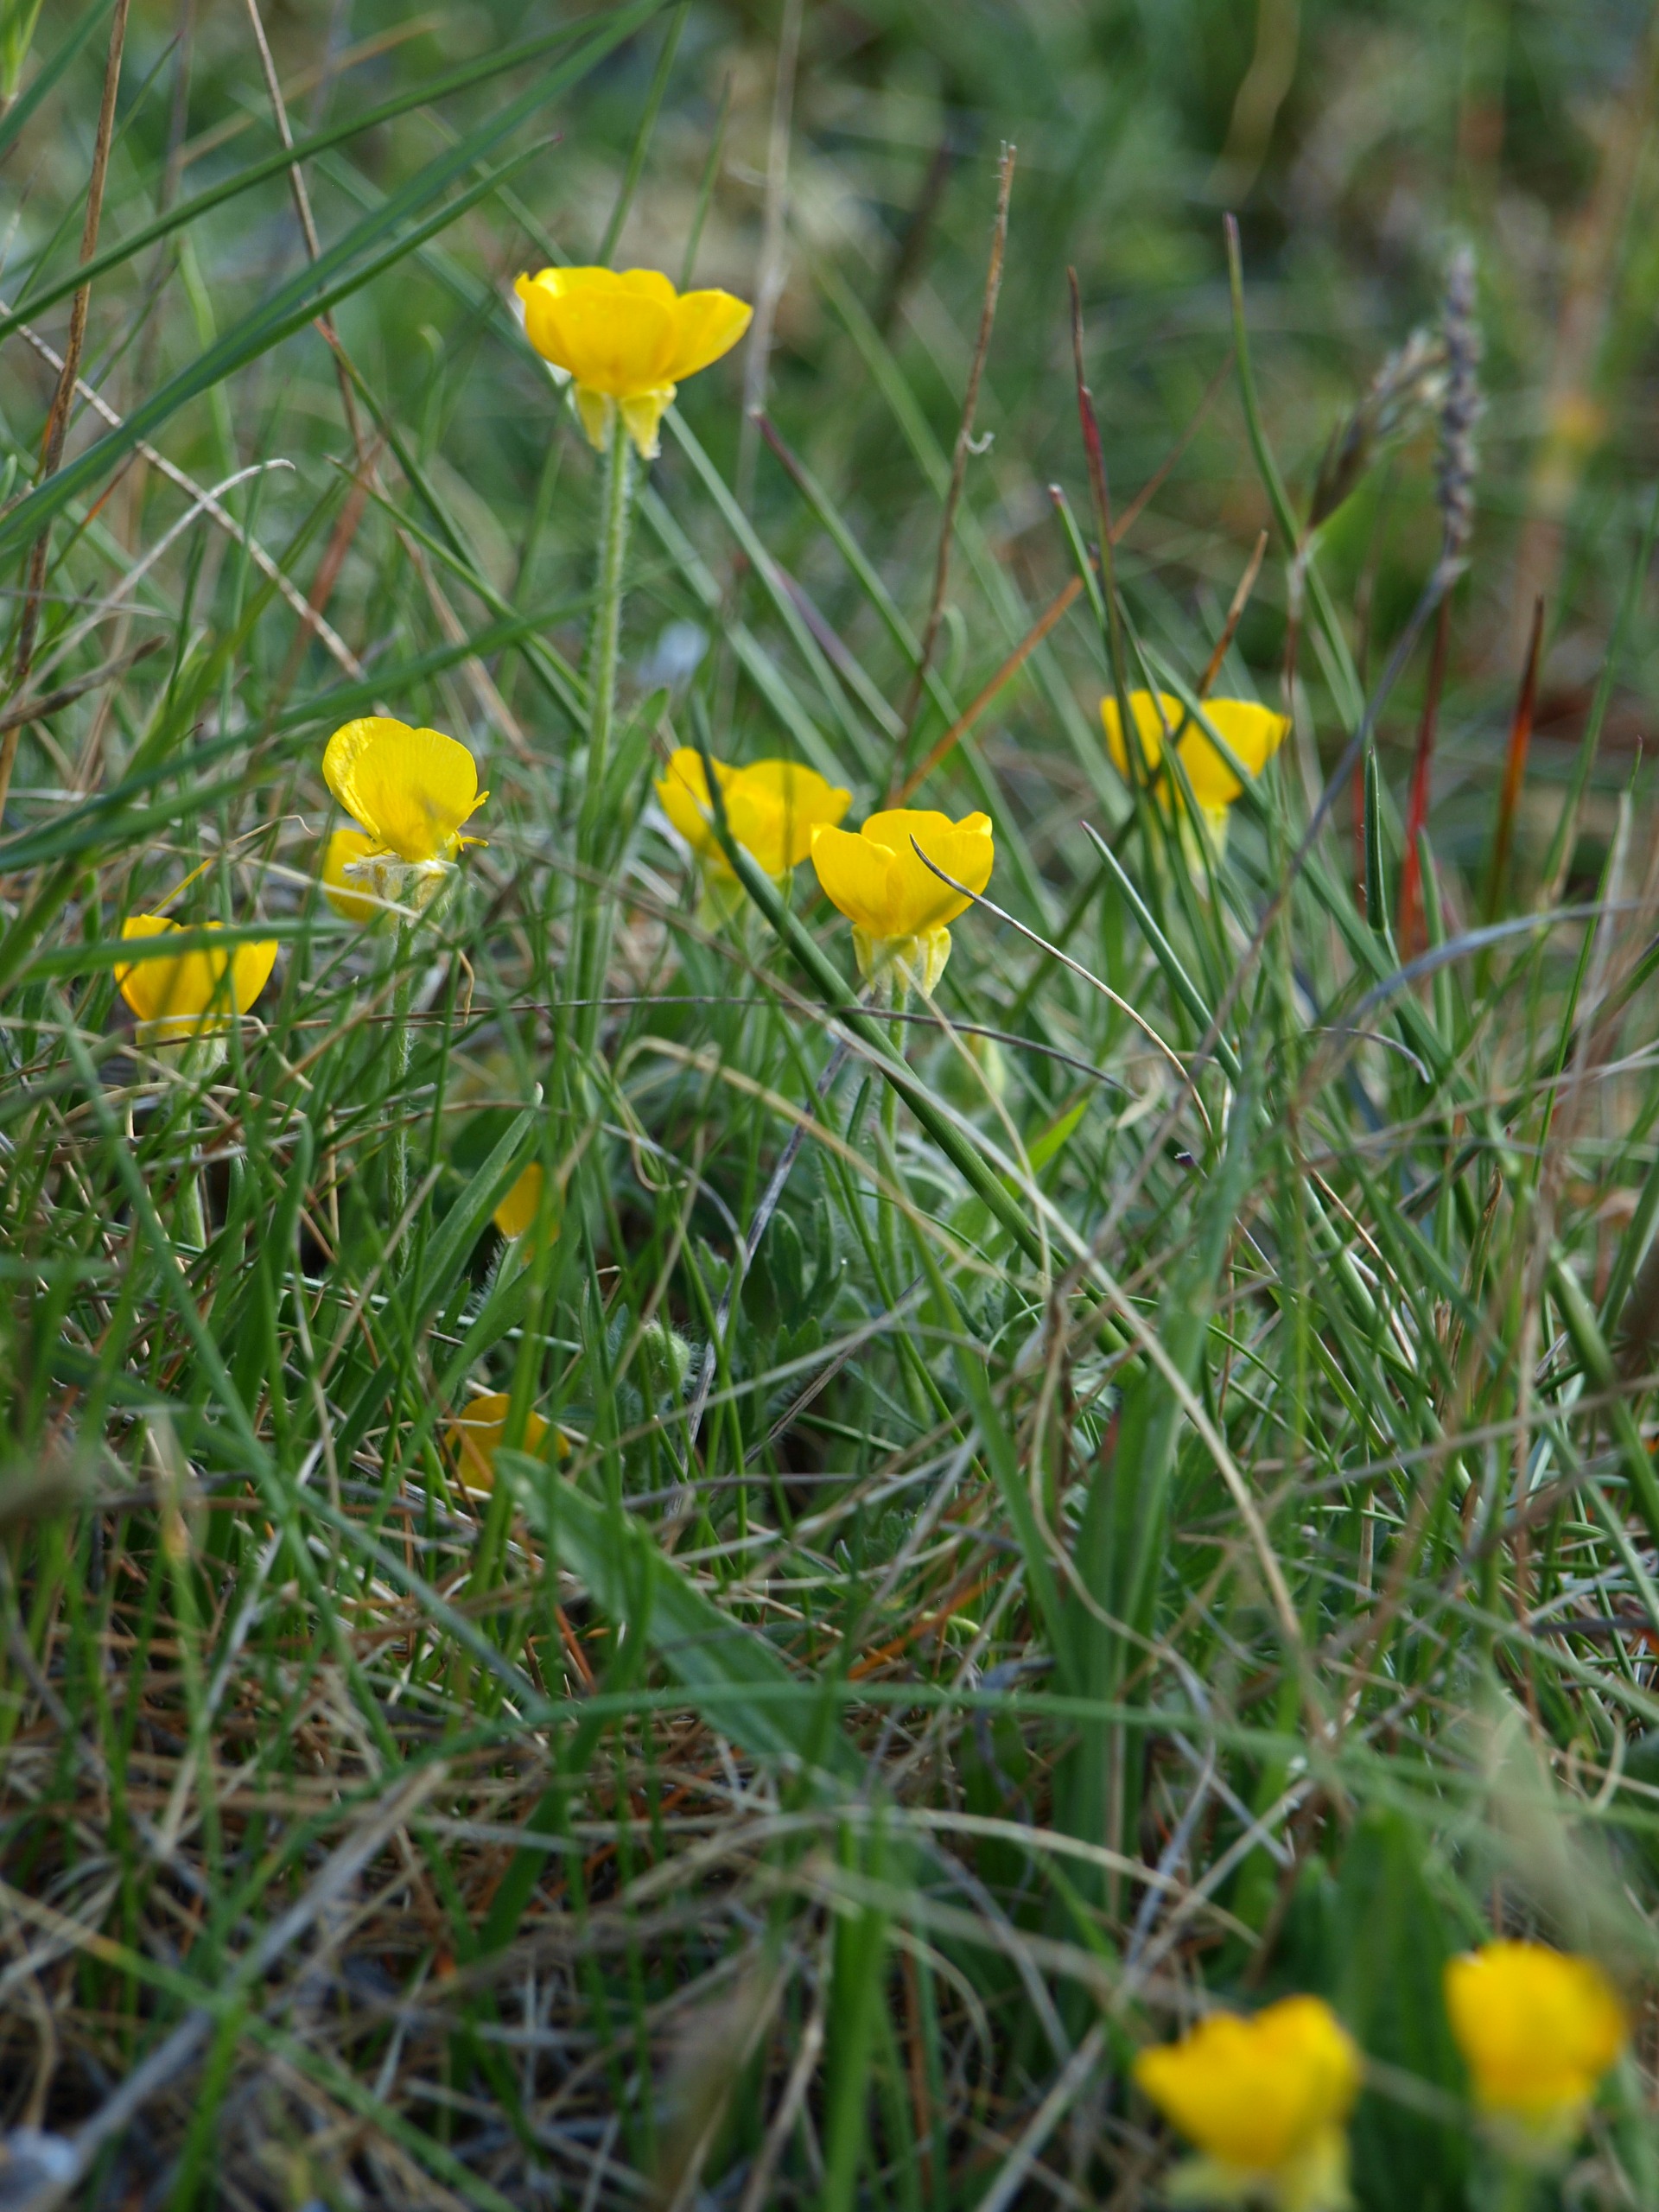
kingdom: Plantae
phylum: Tracheophyta
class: Magnoliopsida
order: Ranunculales
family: Ranunculaceae
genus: Ranunculus
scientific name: Ranunculus bulbosus
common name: Knold-ranunkel
